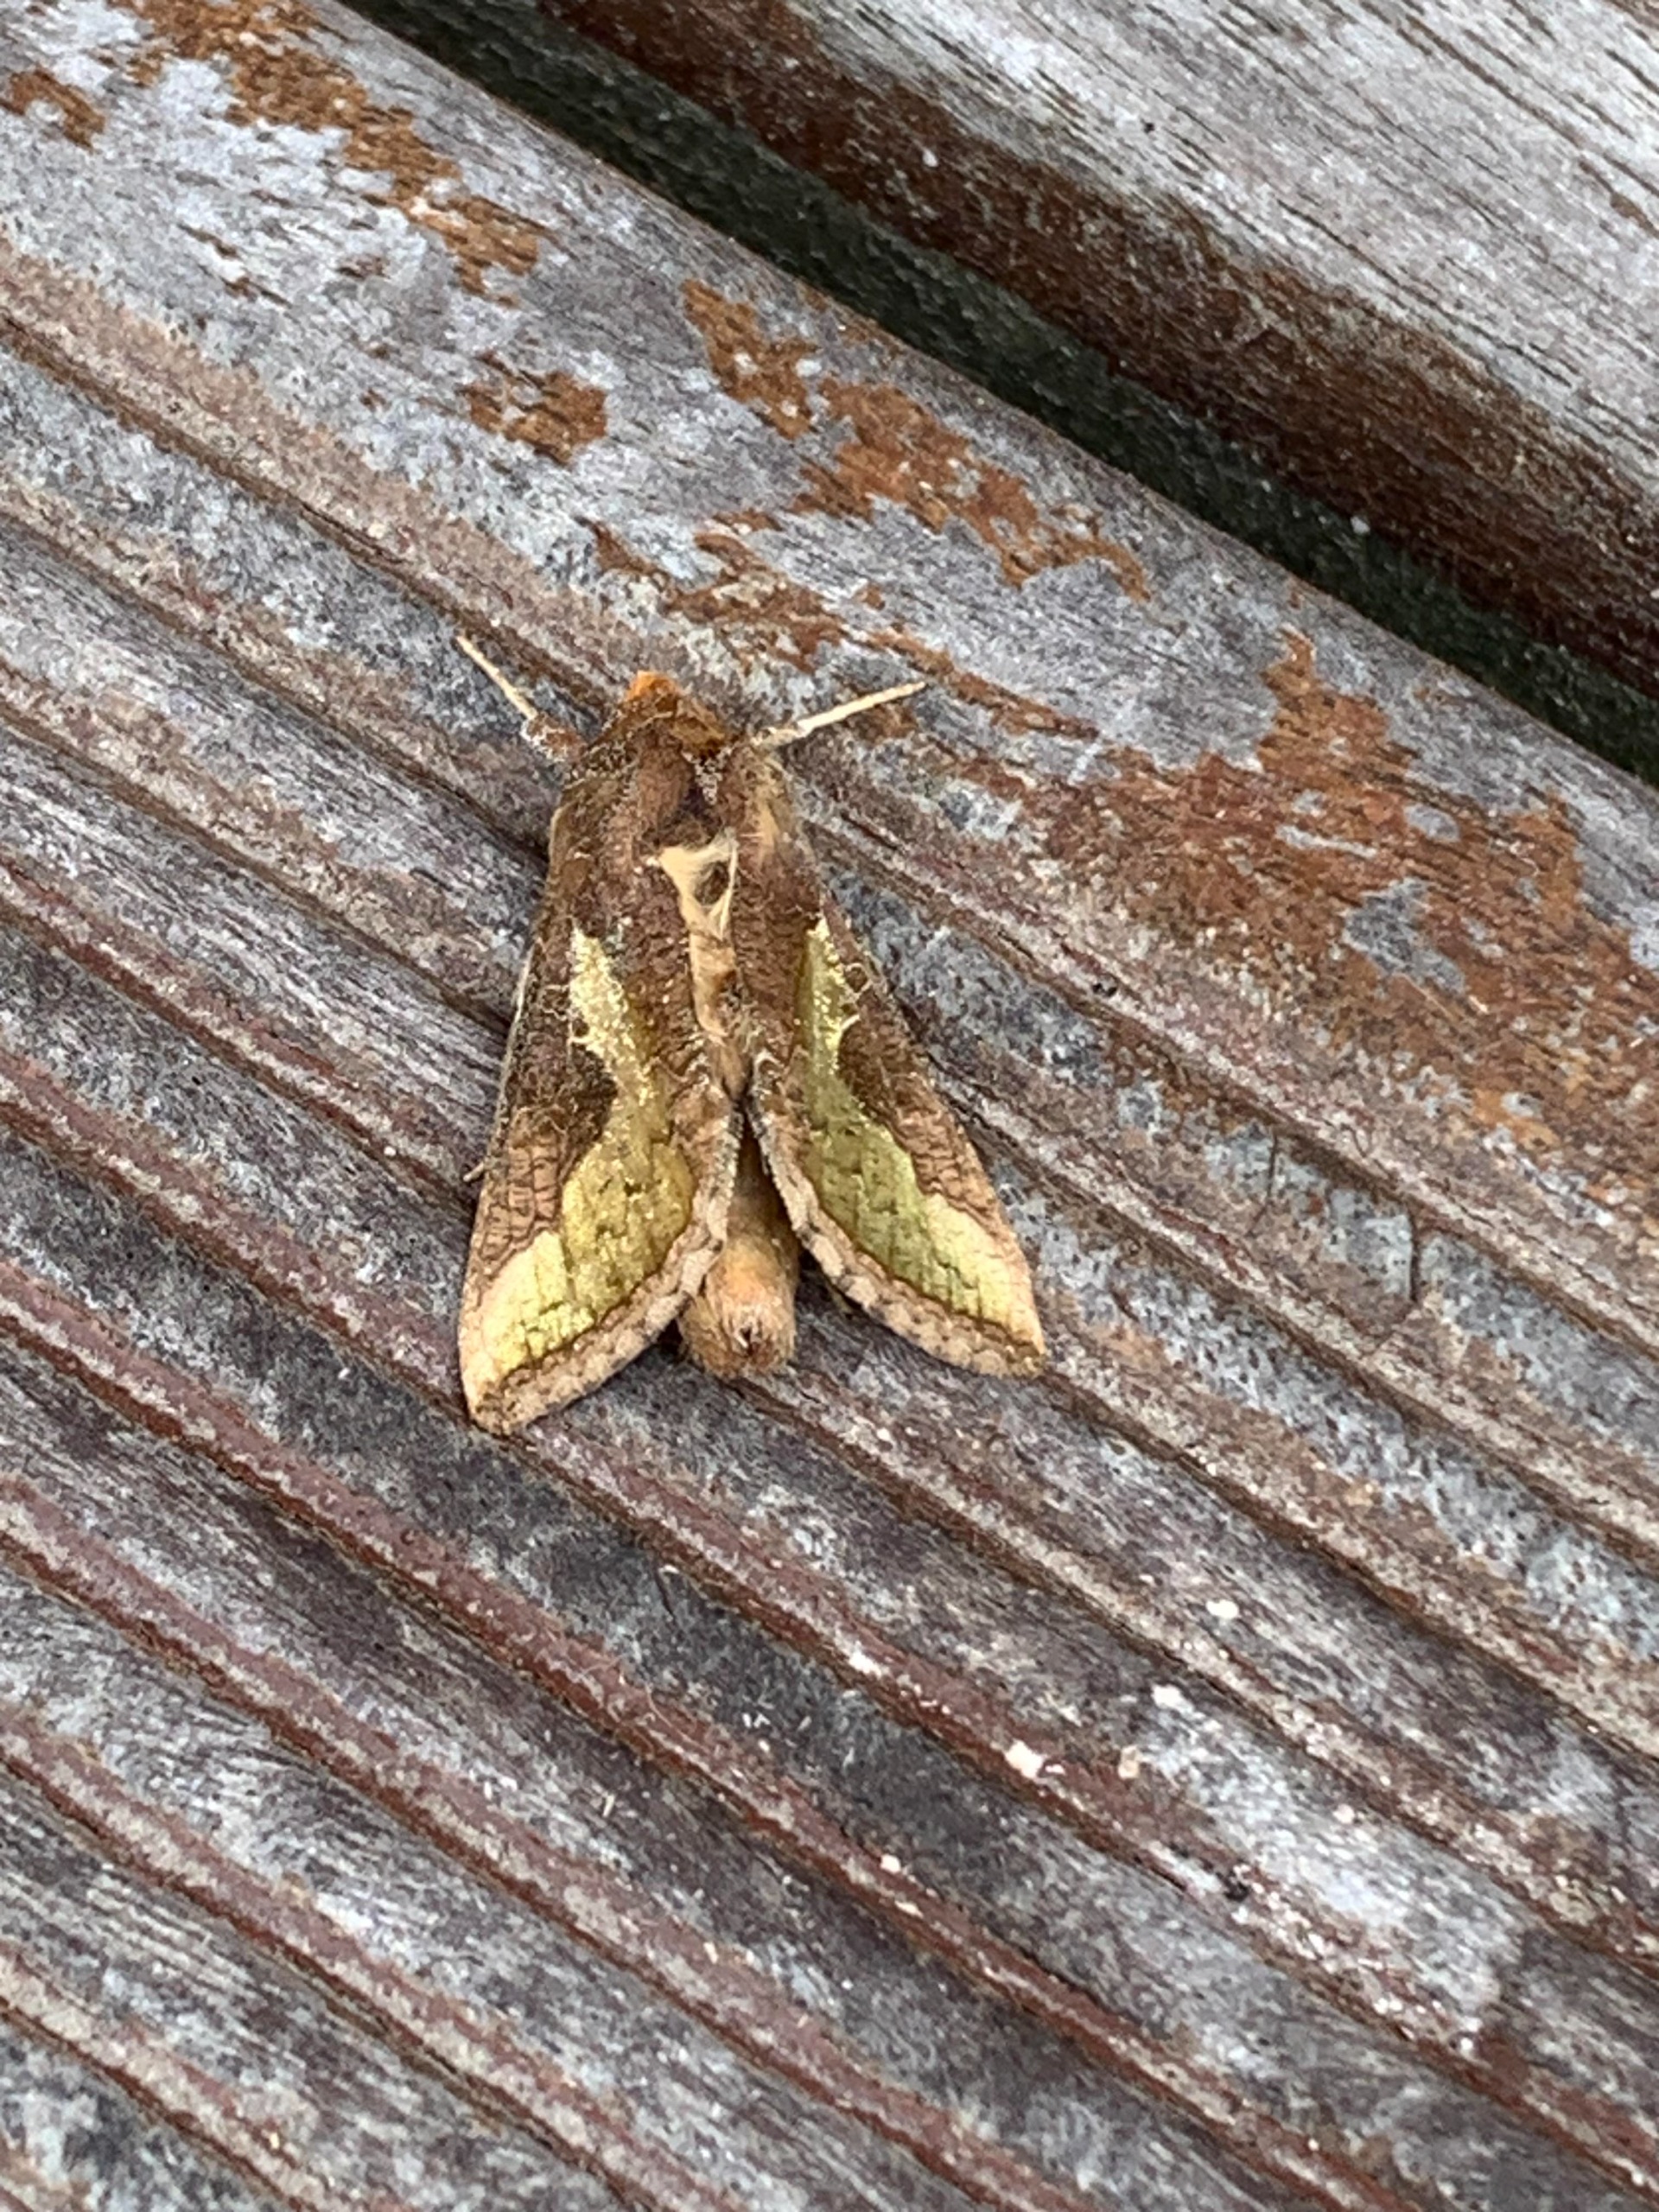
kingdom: Animalia
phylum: Arthropoda
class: Insecta
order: Lepidoptera
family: Noctuidae
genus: Thysanoplusia
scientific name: Thysanoplusia orichalcea
